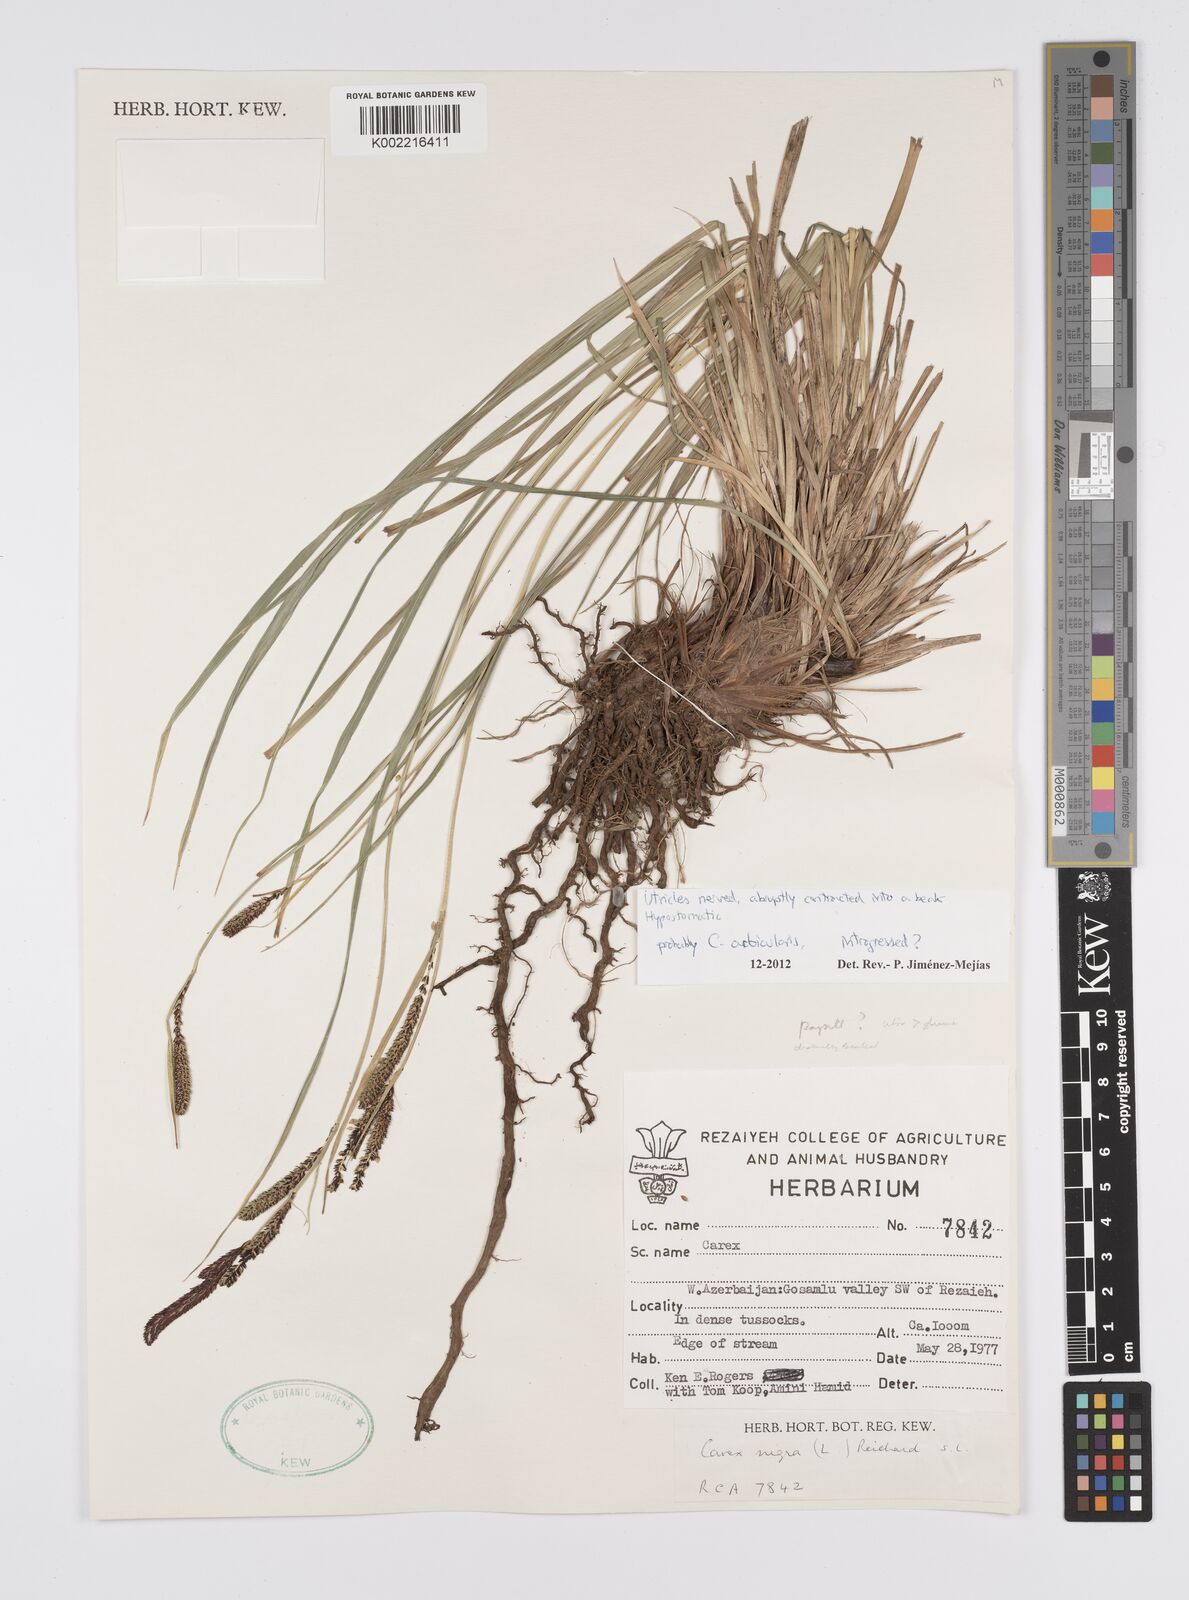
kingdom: Plantae
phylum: Tracheophyta
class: Liliopsida
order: Poales
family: Cyperaceae
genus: Carex
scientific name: Carex orbicularis
